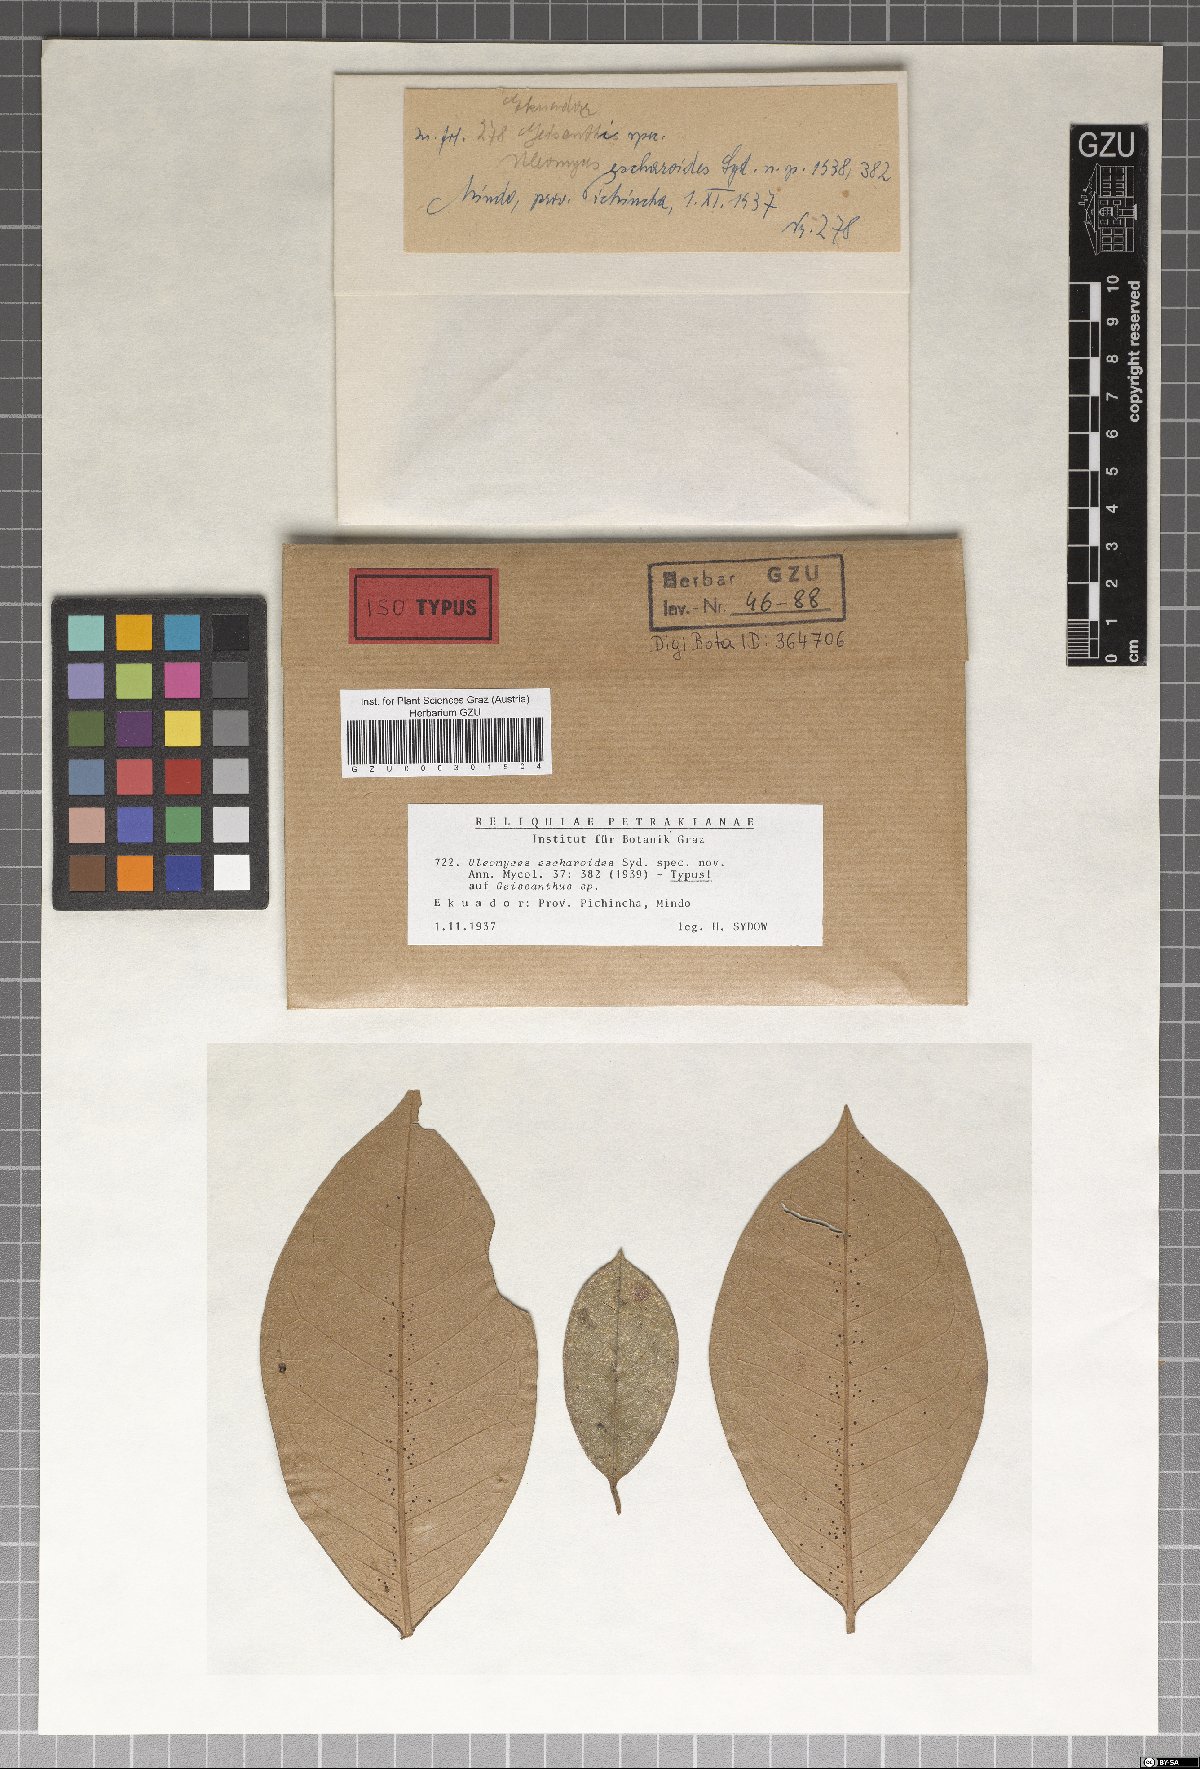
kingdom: Fungi
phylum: Ascomycota
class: Dothideomycetes
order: Myriangiales
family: Myriangiaceae
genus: Anhellia
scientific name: Anhellia escharoides
